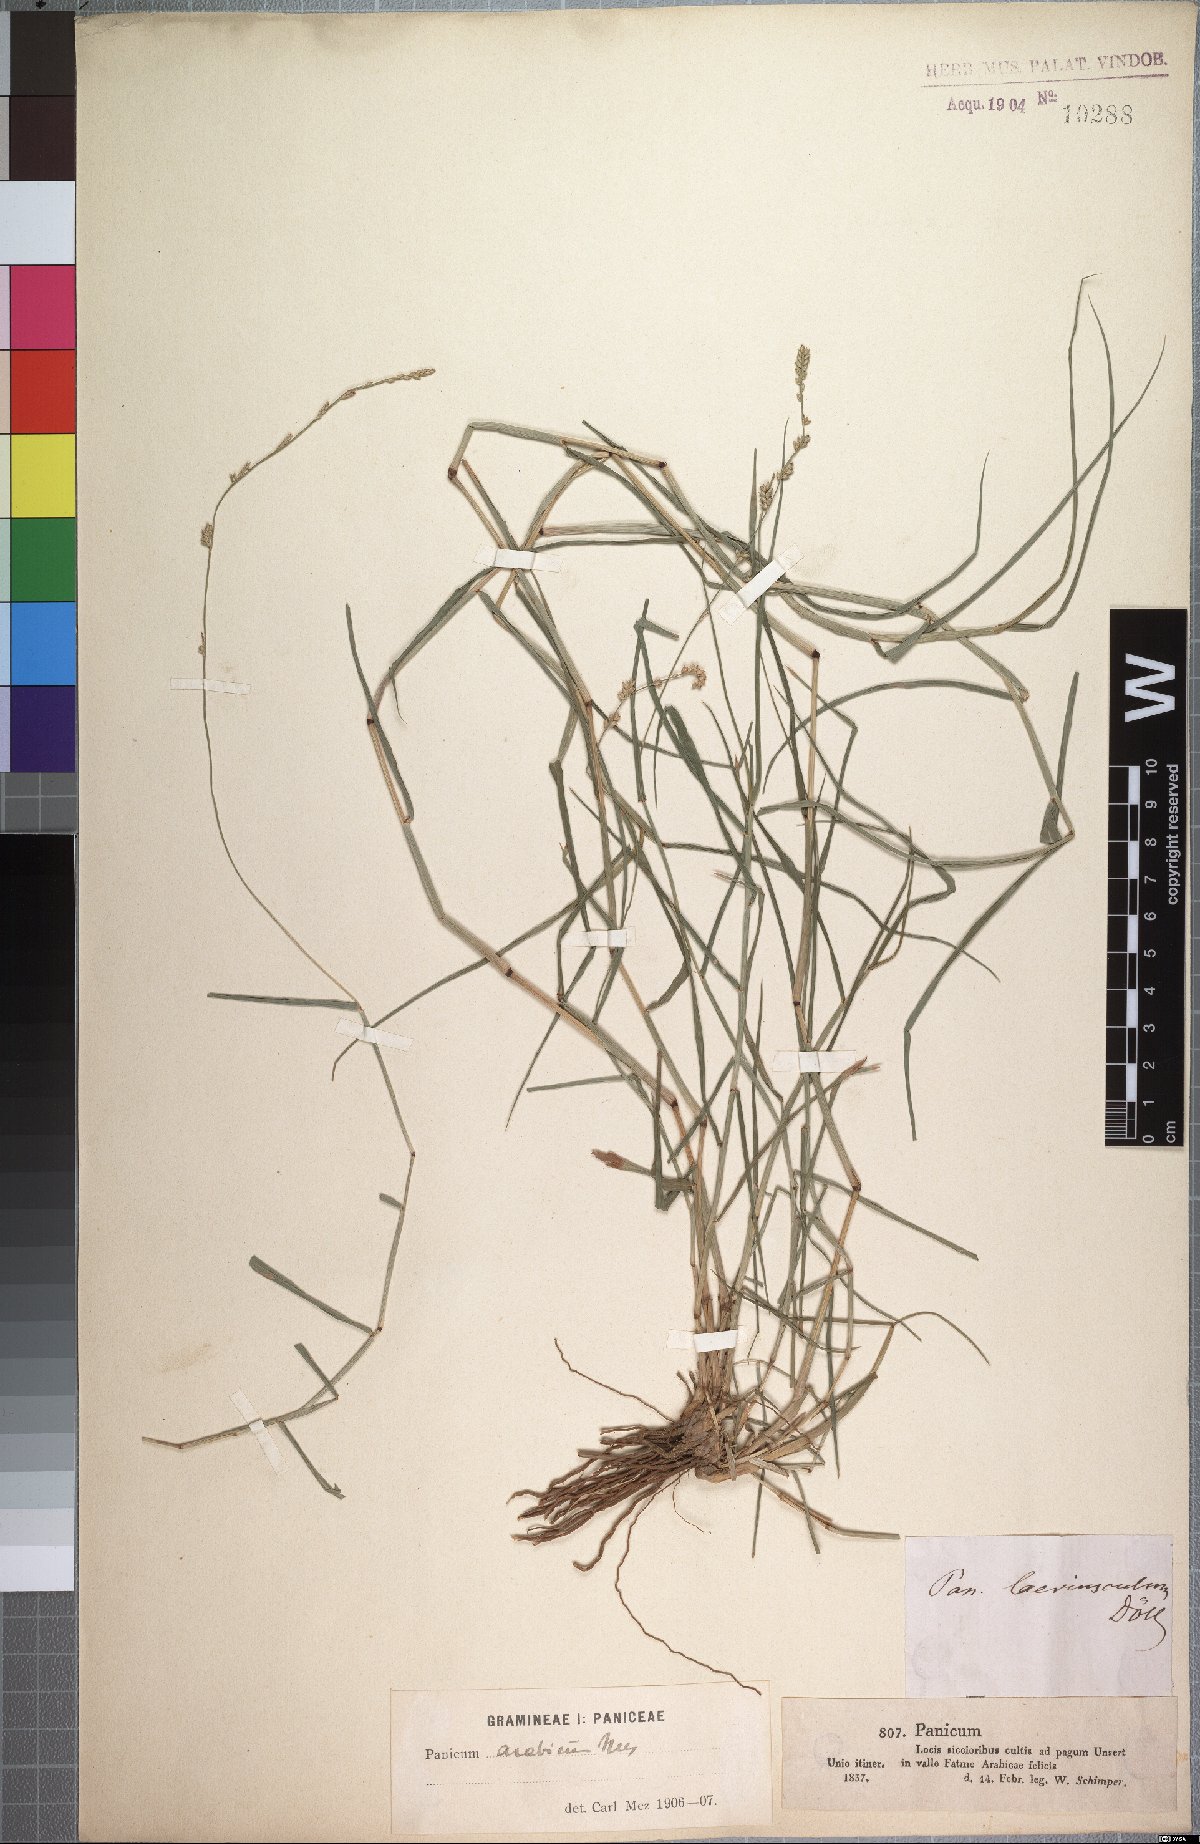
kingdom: Plantae
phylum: Tracheophyta
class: Liliopsida
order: Poales
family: Poaceae
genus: Setaria
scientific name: Setaria desertorum
